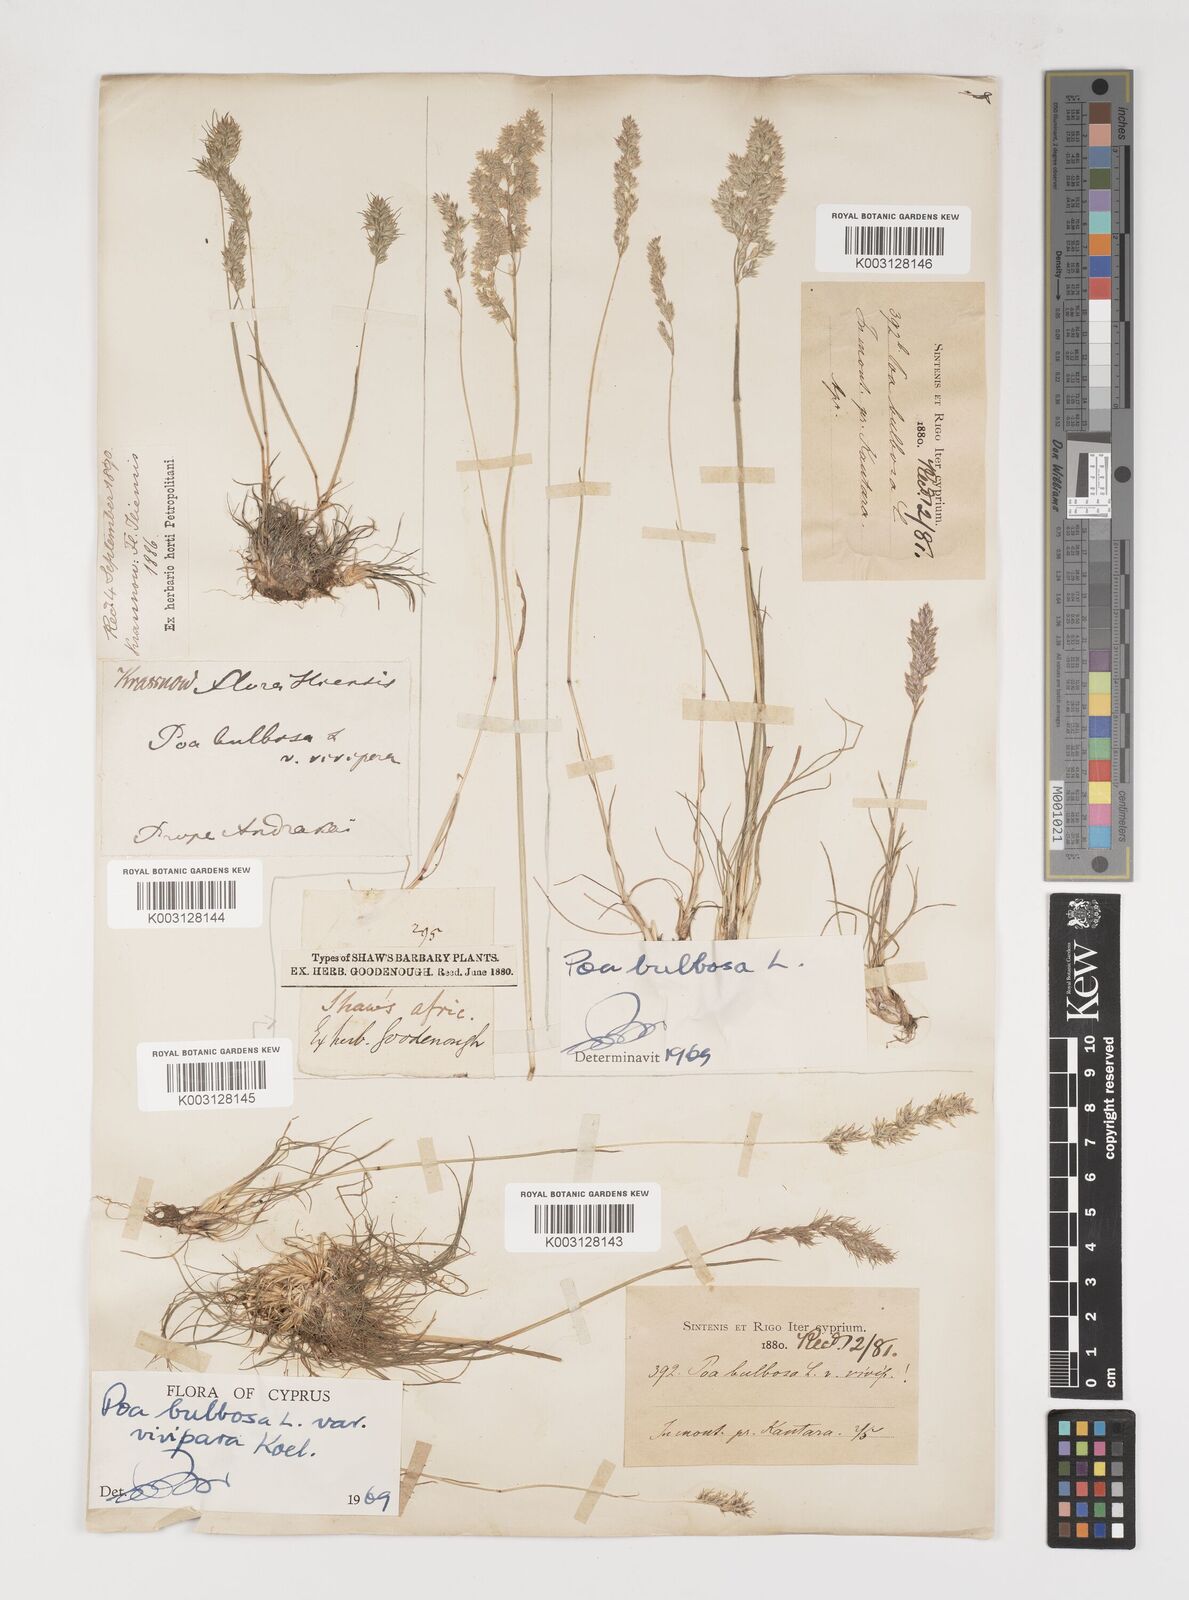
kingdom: Plantae
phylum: Tracheophyta
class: Liliopsida
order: Poales
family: Poaceae
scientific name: Poaceae
